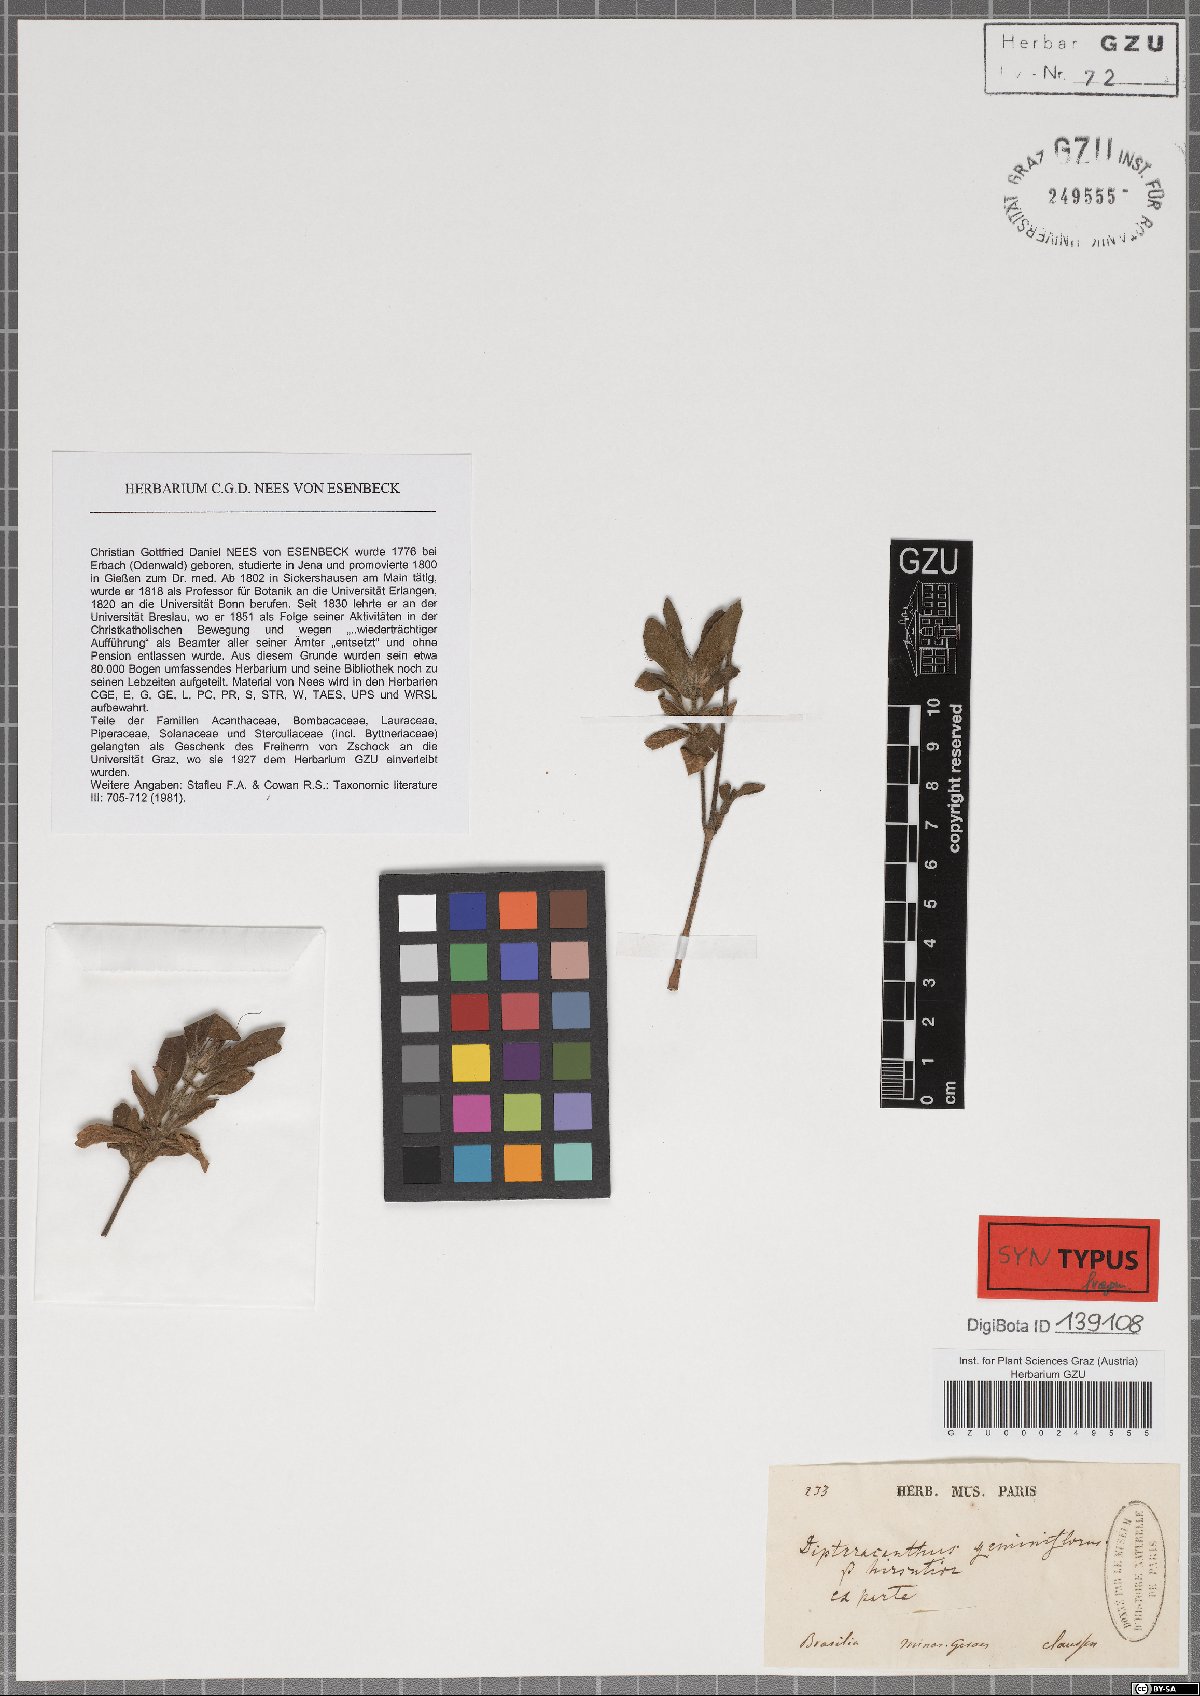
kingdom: Plantae
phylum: Tracheophyta
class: Magnoliopsida
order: Lamiales
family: Acanthaceae
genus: Ruellia
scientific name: Ruellia geminiflora
